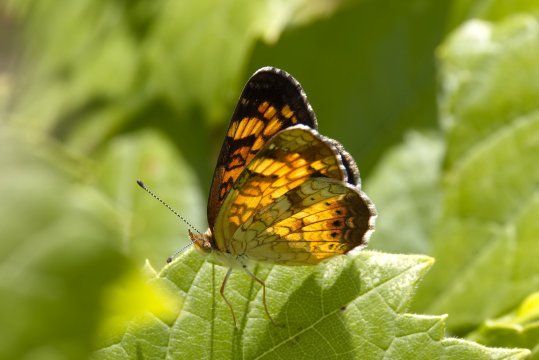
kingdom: Animalia
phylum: Arthropoda
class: Insecta
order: Lepidoptera
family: Nymphalidae
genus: Phyciodes
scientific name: Phyciodes tharos
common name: Pearl Crescent
